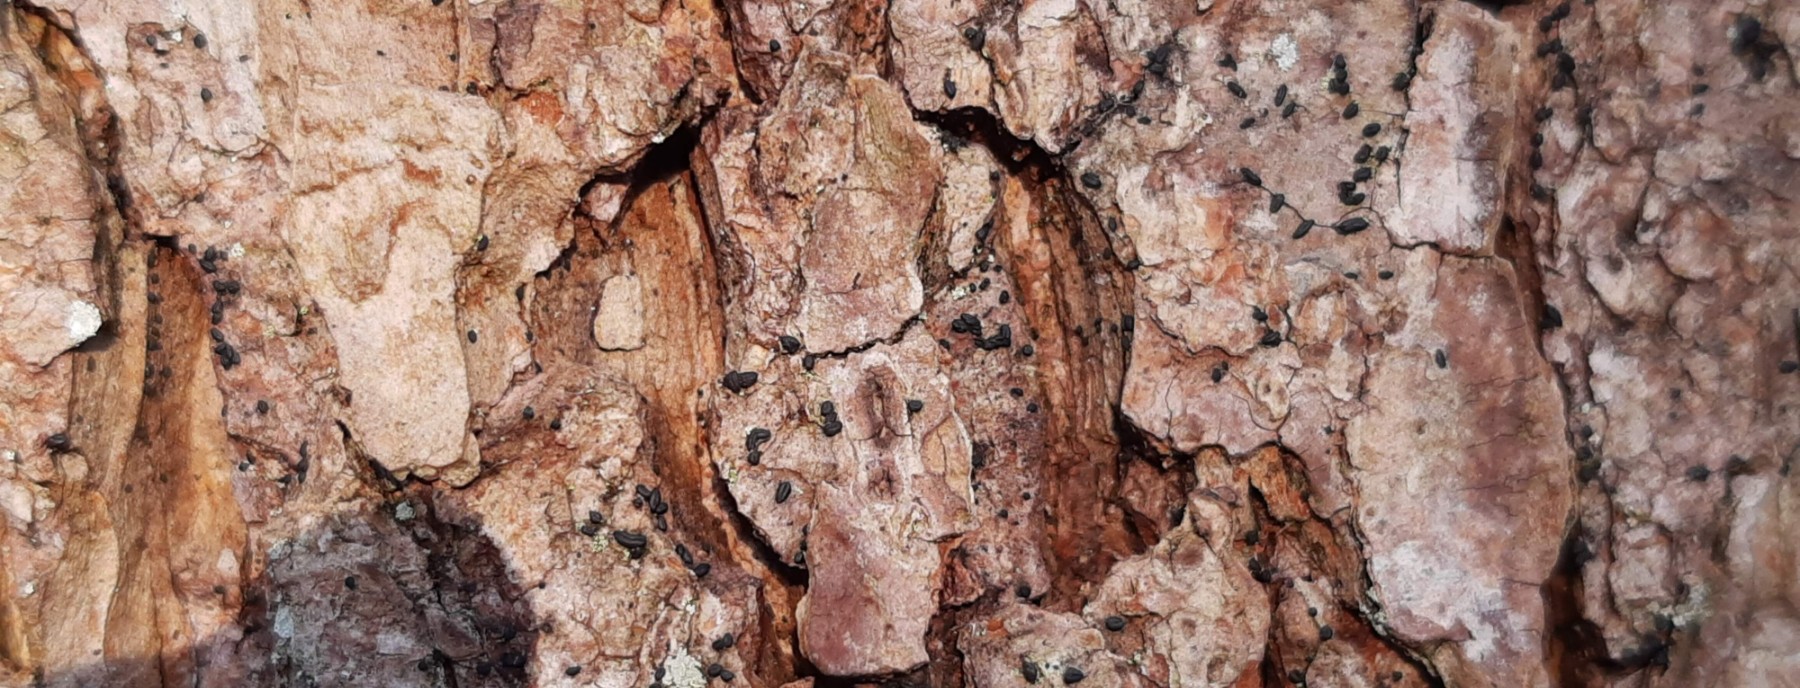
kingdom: Fungi
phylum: Ascomycota
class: Dothideomycetes
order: Hysteriales
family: Hysteriaceae
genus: Hysterium
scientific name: Hysterium pulicare
